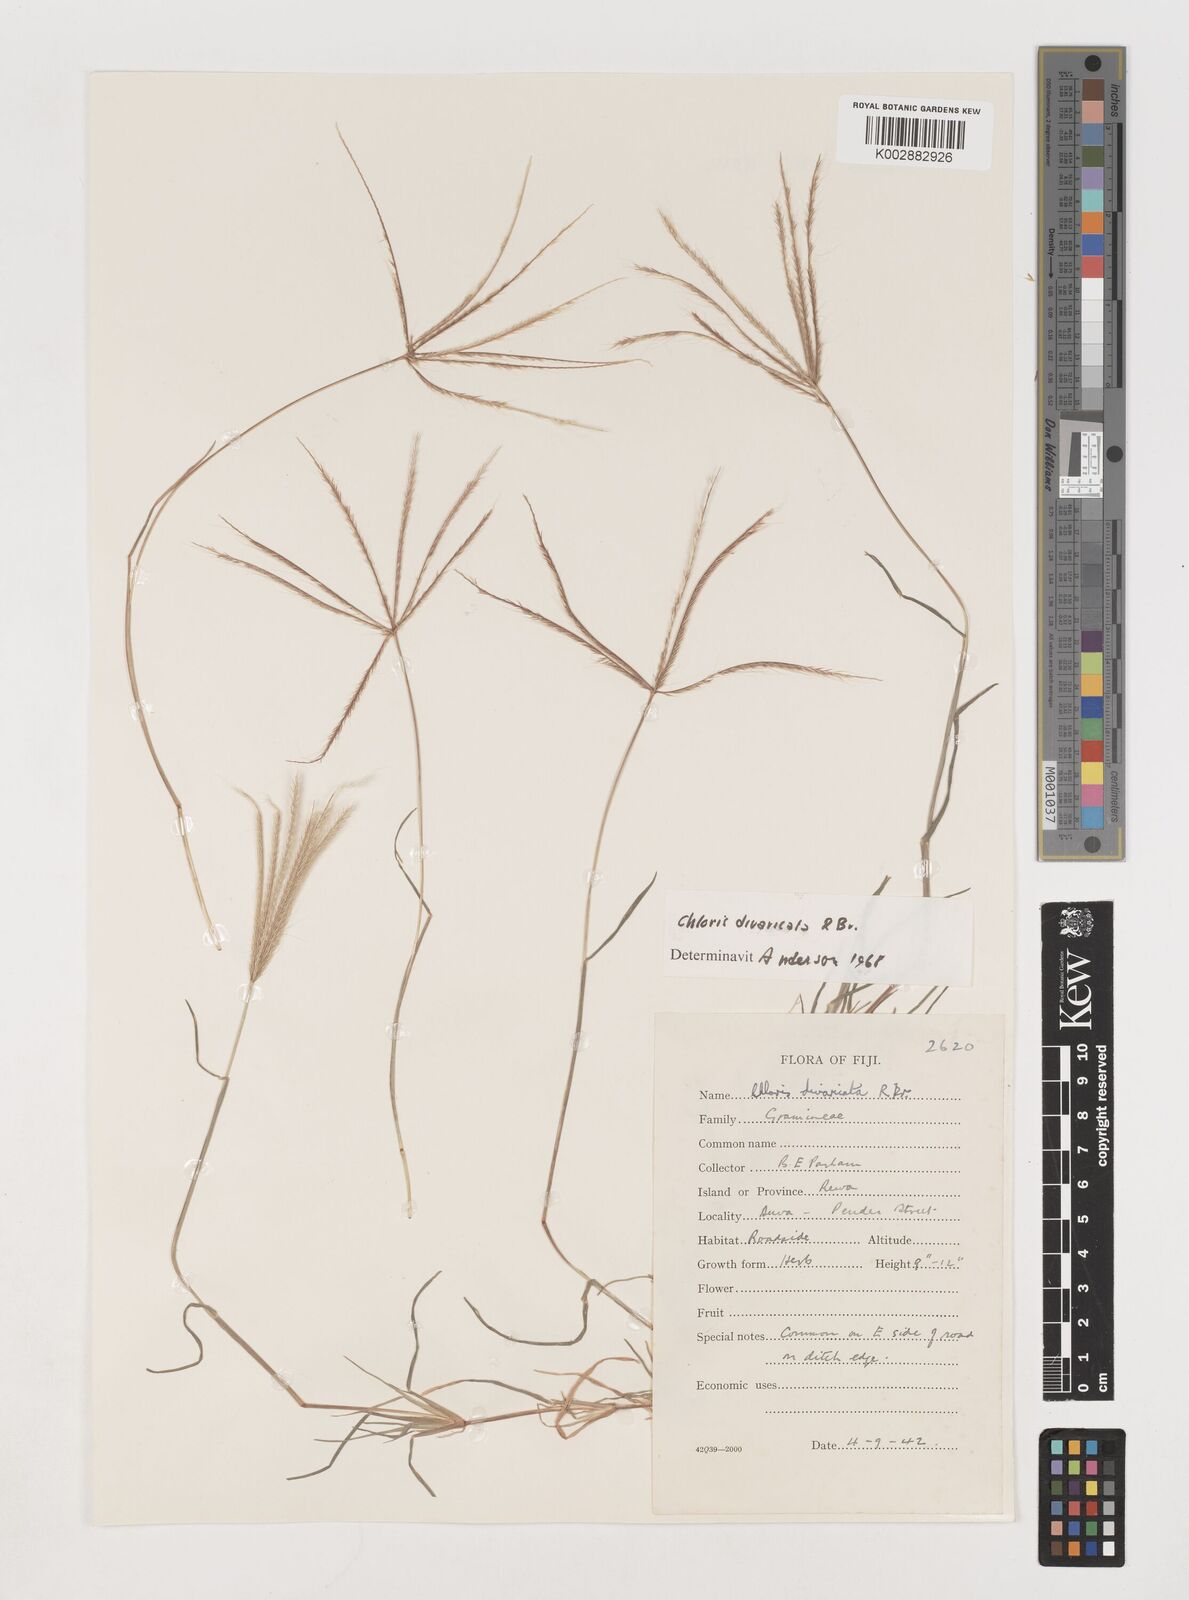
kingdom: Plantae
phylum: Tracheophyta
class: Liliopsida
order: Poales
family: Poaceae
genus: Chloris
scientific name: Chloris divaricata
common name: Spreading windmill grass
